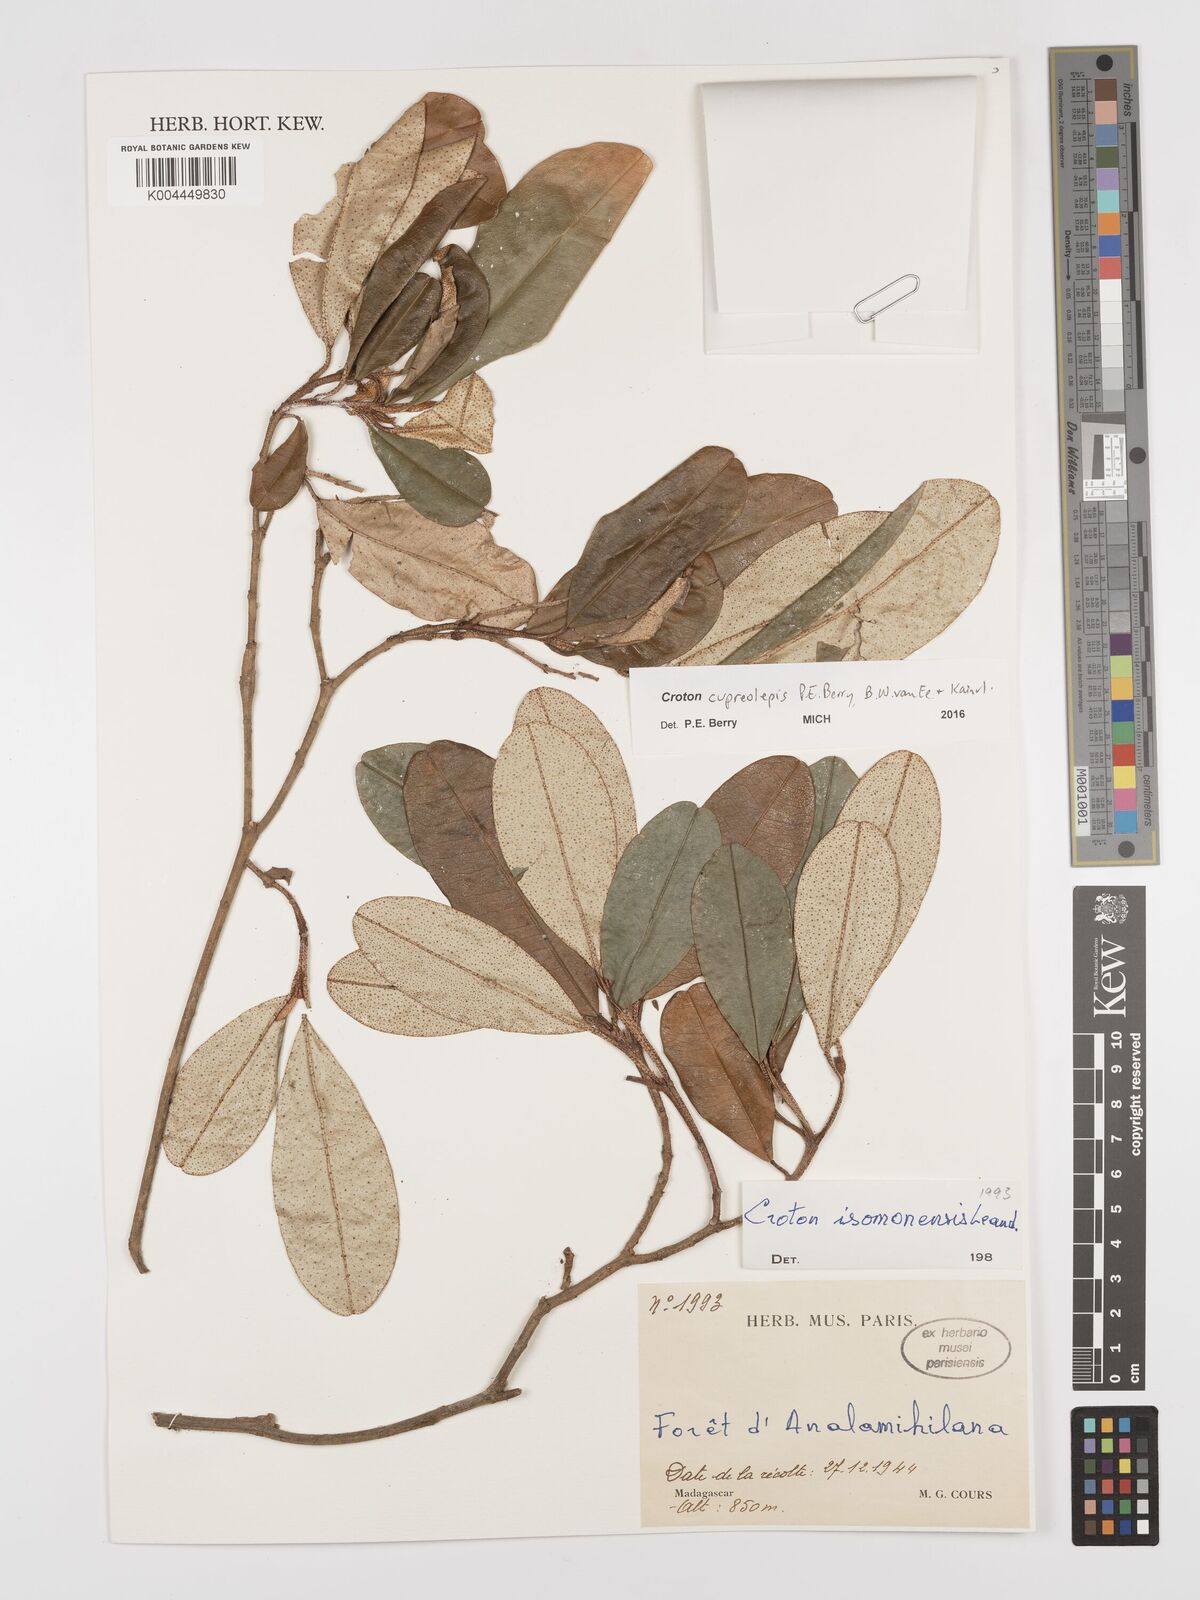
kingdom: Plantae
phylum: Tracheophyta
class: Magnoliopsida
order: Malpighiales
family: Euphorbiaceae
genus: Croton
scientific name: Croton cupreolepis
